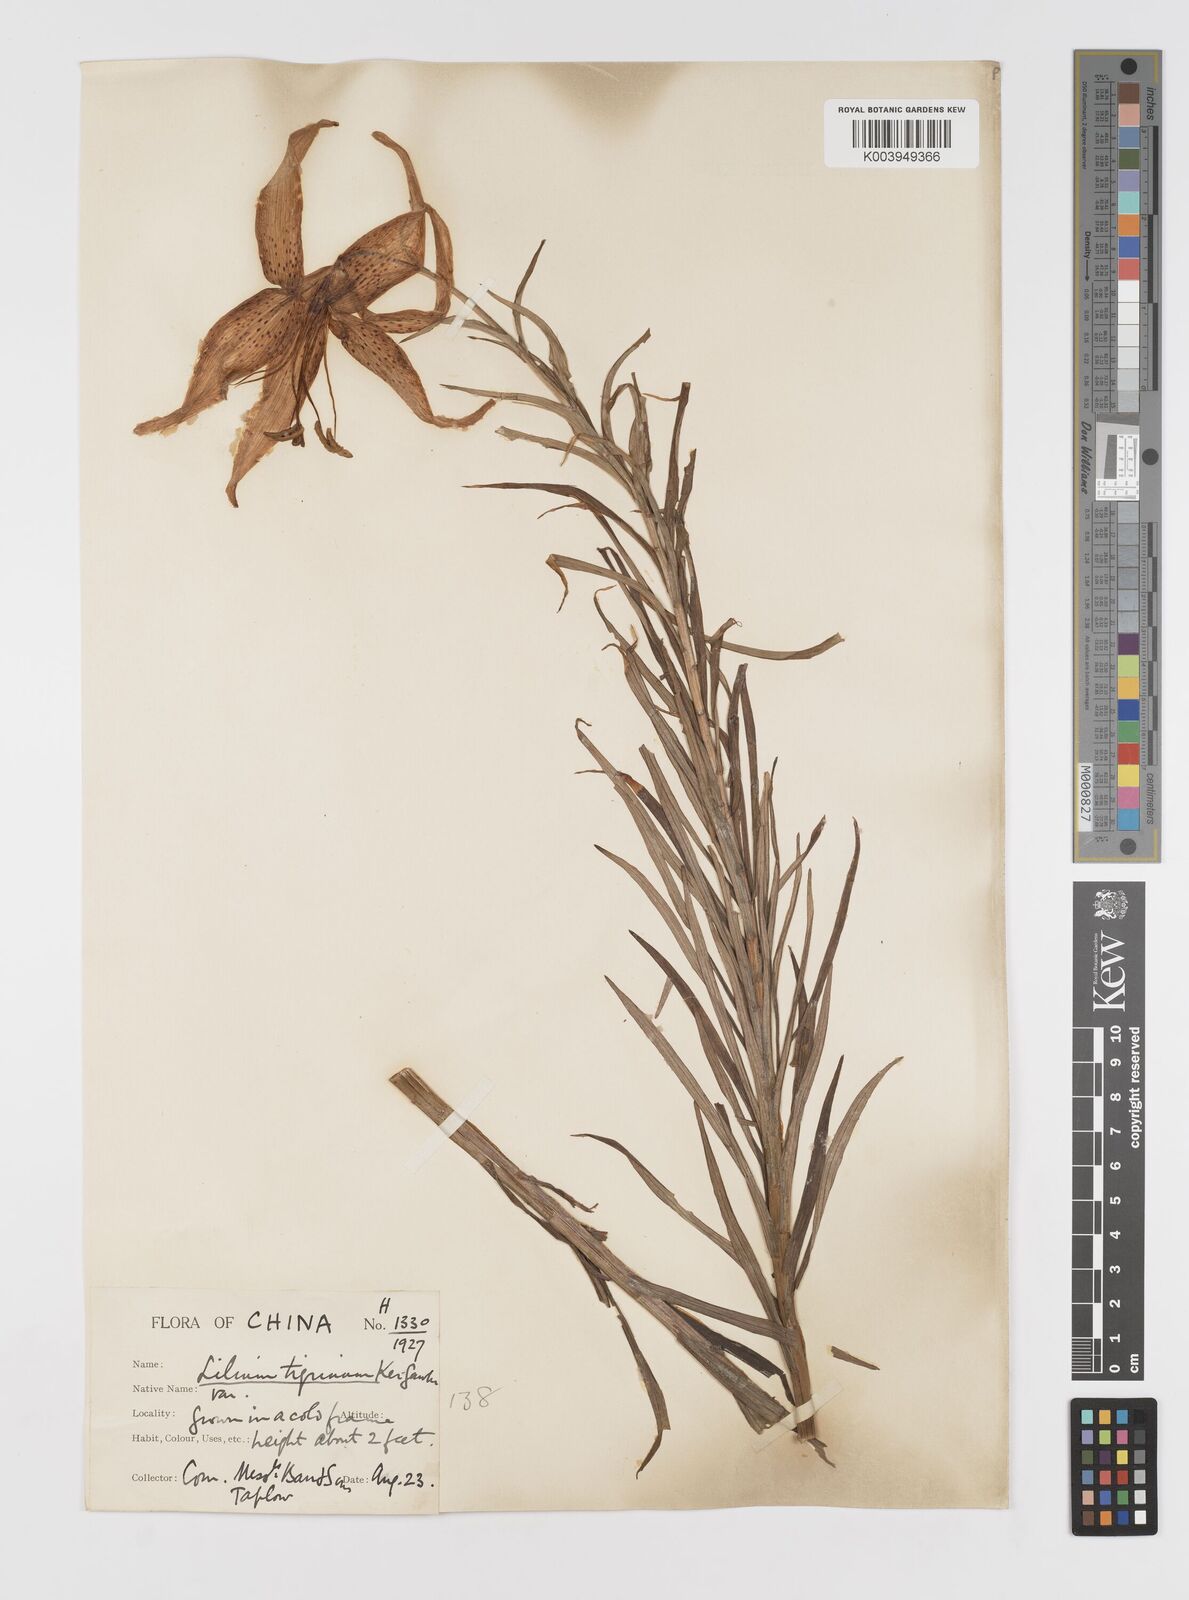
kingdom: Plantae
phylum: Tracheophyta
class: Liliopsida
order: Liliales
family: Liliaceae
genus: Lilium
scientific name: Lilium lancifolium
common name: Tiger lily
